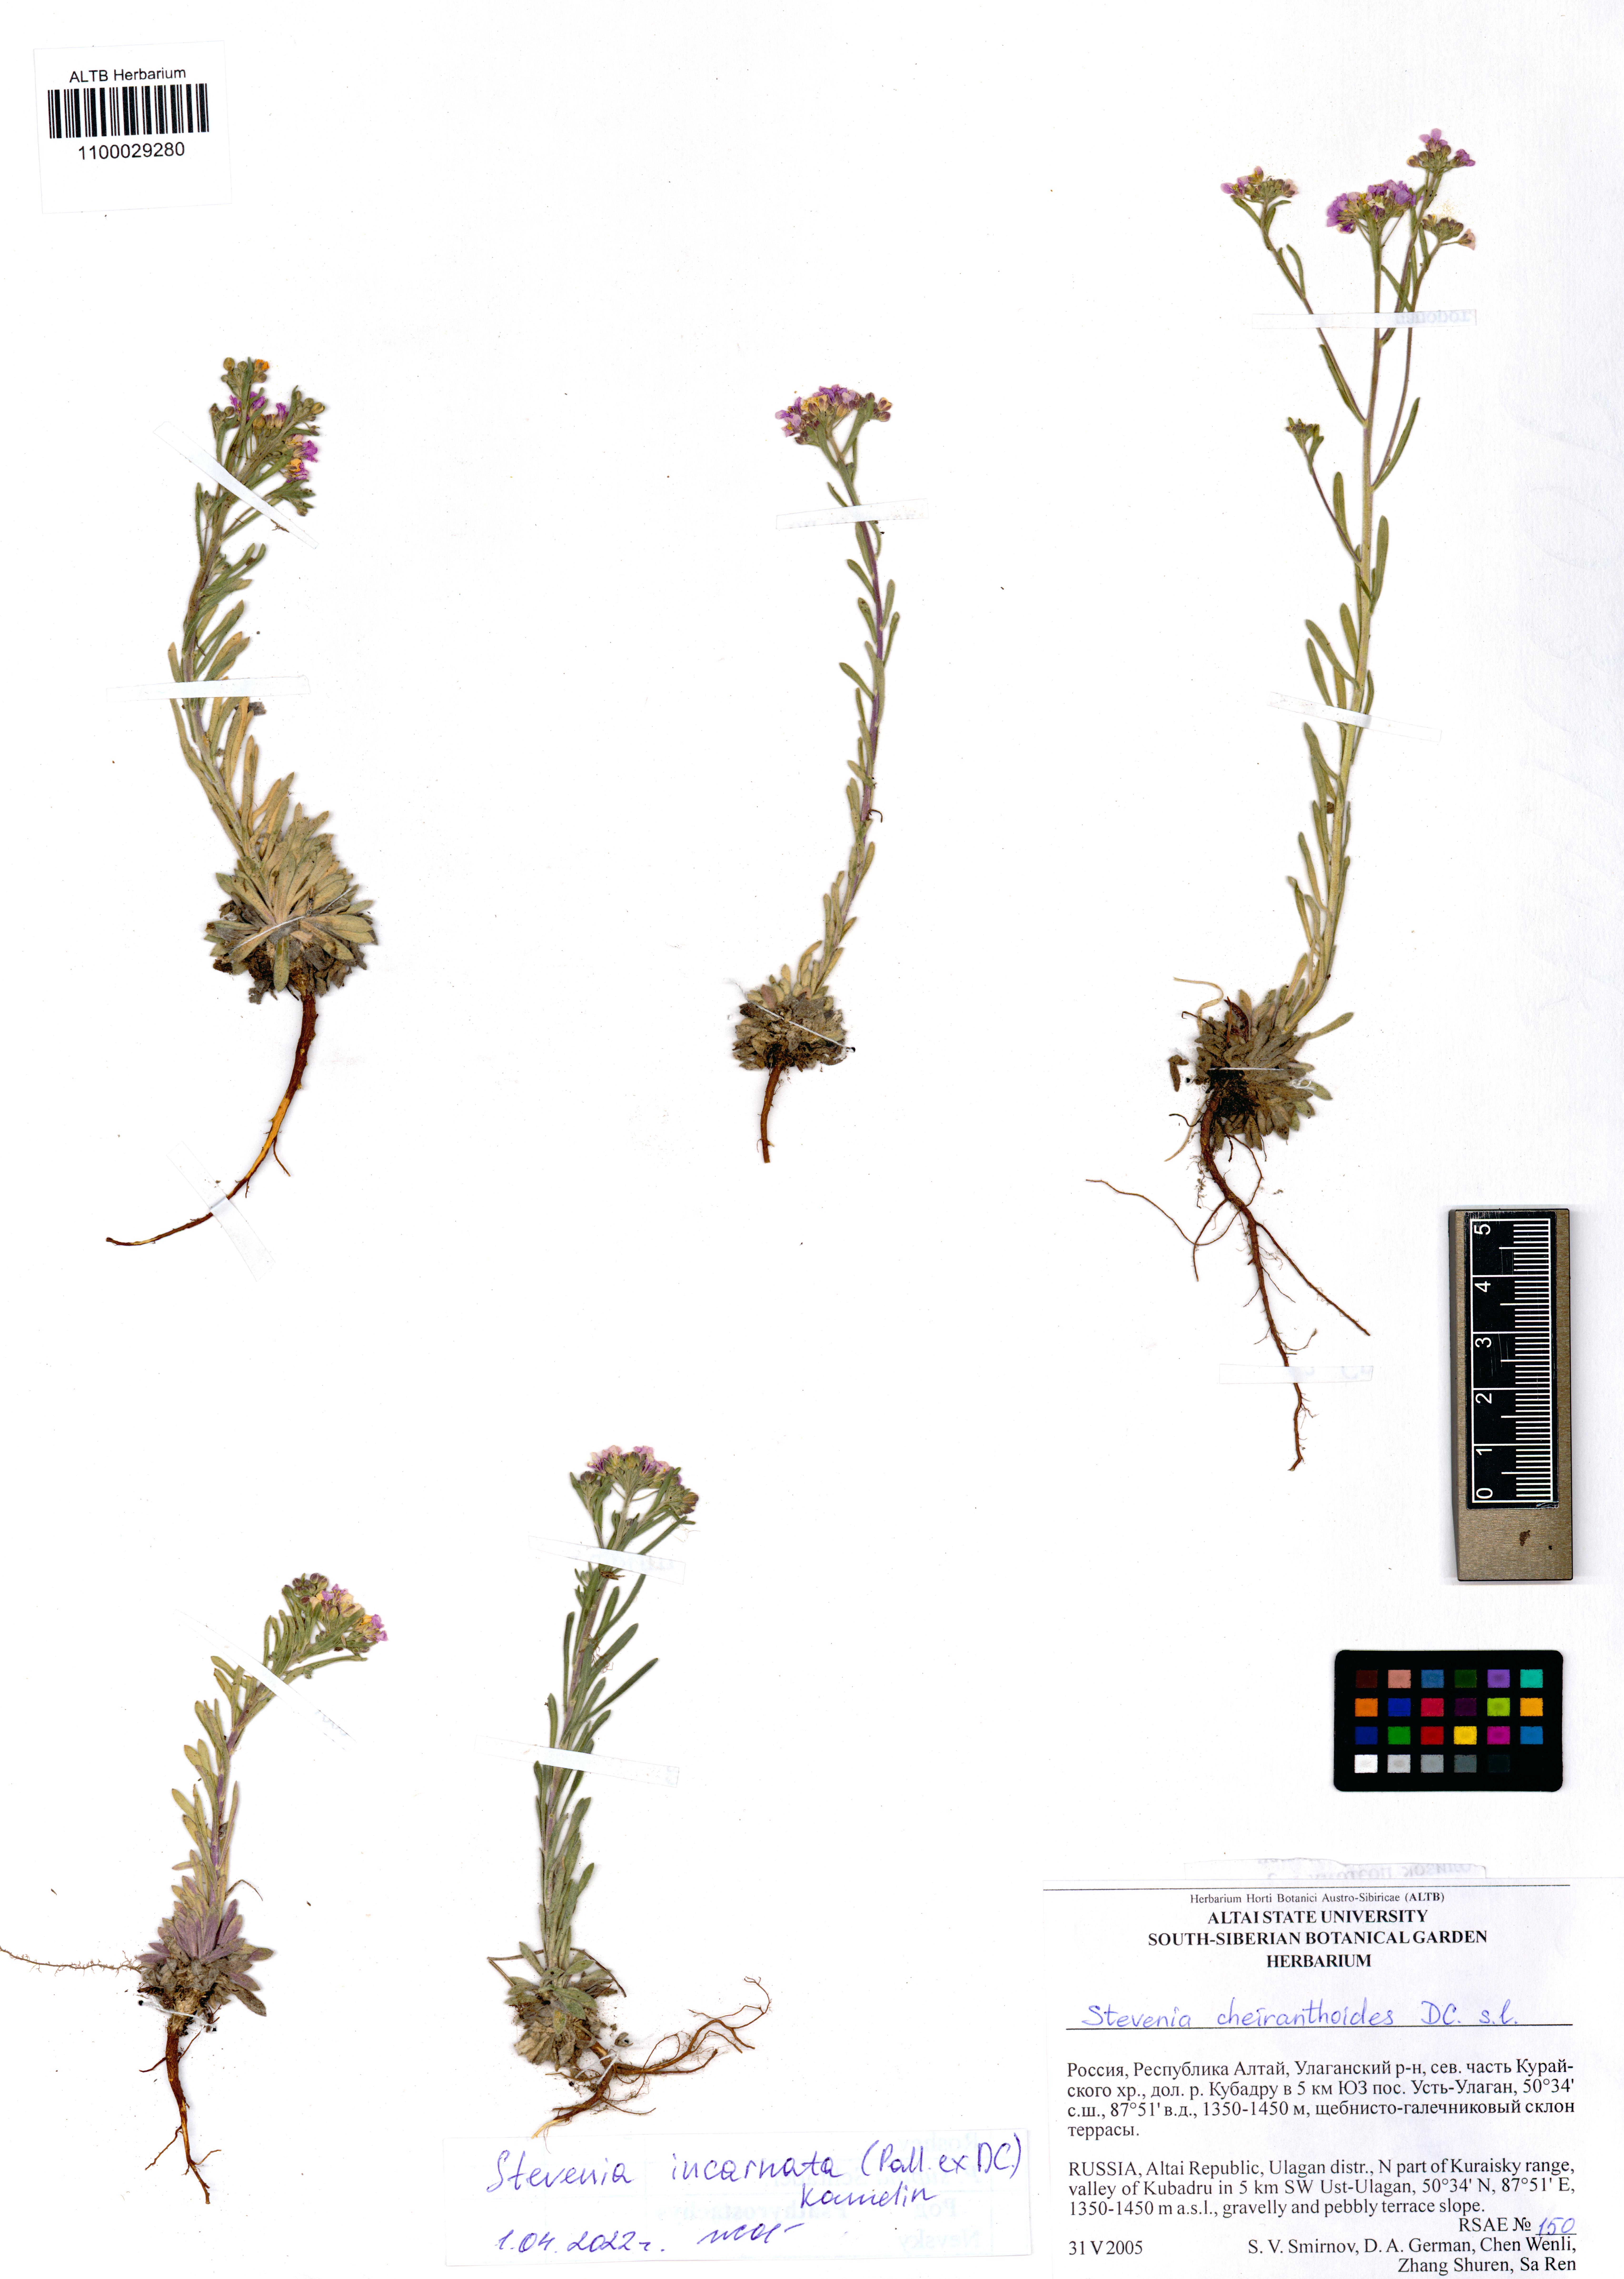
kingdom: Plantae
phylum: Tracheophyta
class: Magnoliopsida
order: Brassicales
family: Brassicaceae
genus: Stevenia
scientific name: Stevenia incarnata
